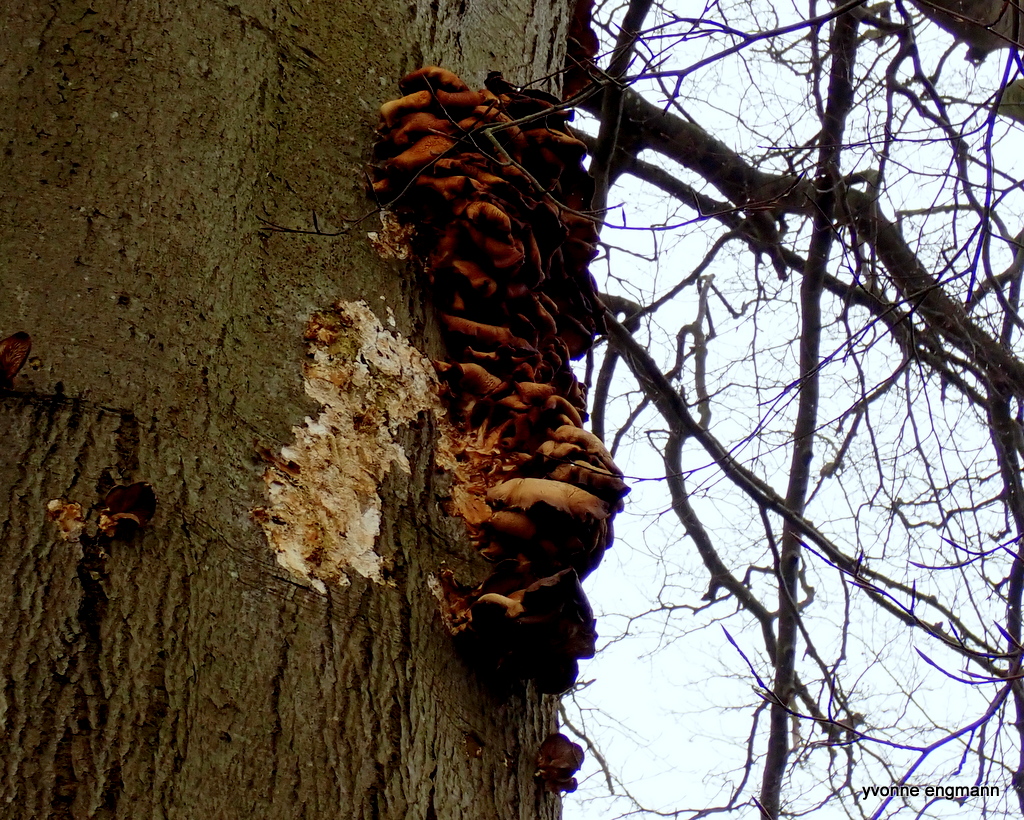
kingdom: Fungi
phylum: Basidiomycota
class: Agaricomycetes
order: Agaricales
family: Pleurotaceae
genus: Pleurotus
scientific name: Pleurotus ostreatus
